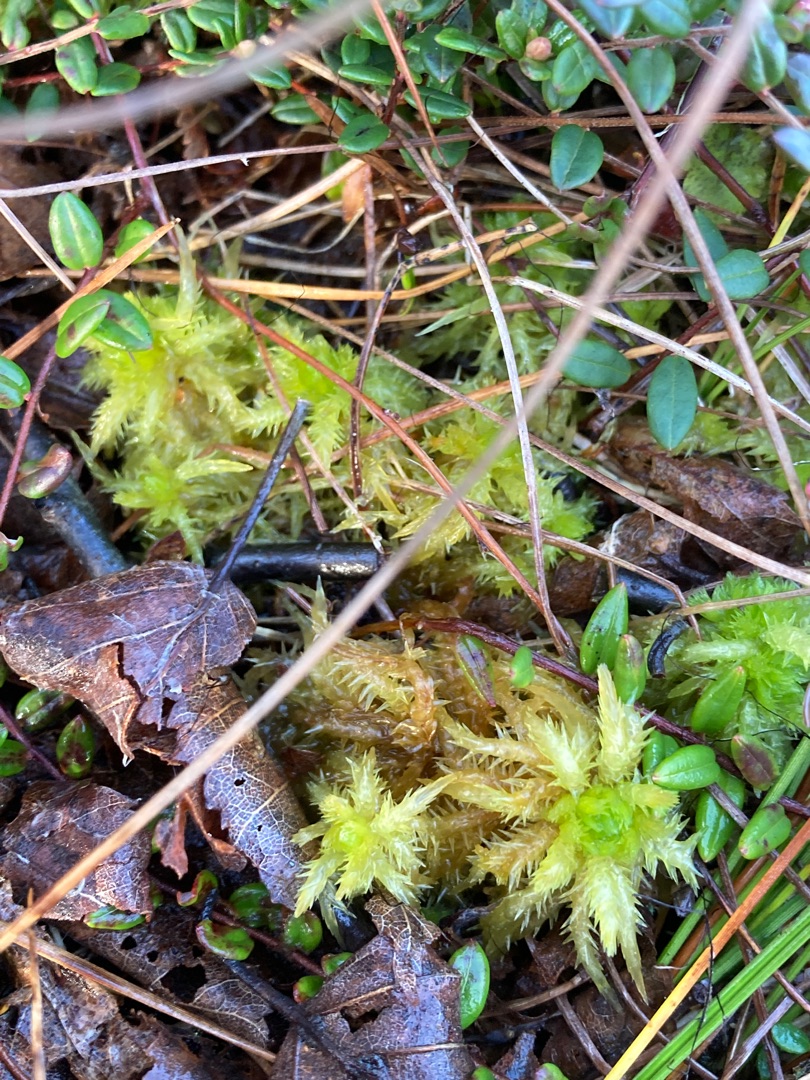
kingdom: Plantae
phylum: Bryophyta
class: Sphagnopsida
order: Sphagnales
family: Sphagnaceae
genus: Sphagnum
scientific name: Sphagnum squarrosum
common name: Udspærret tørvemos
